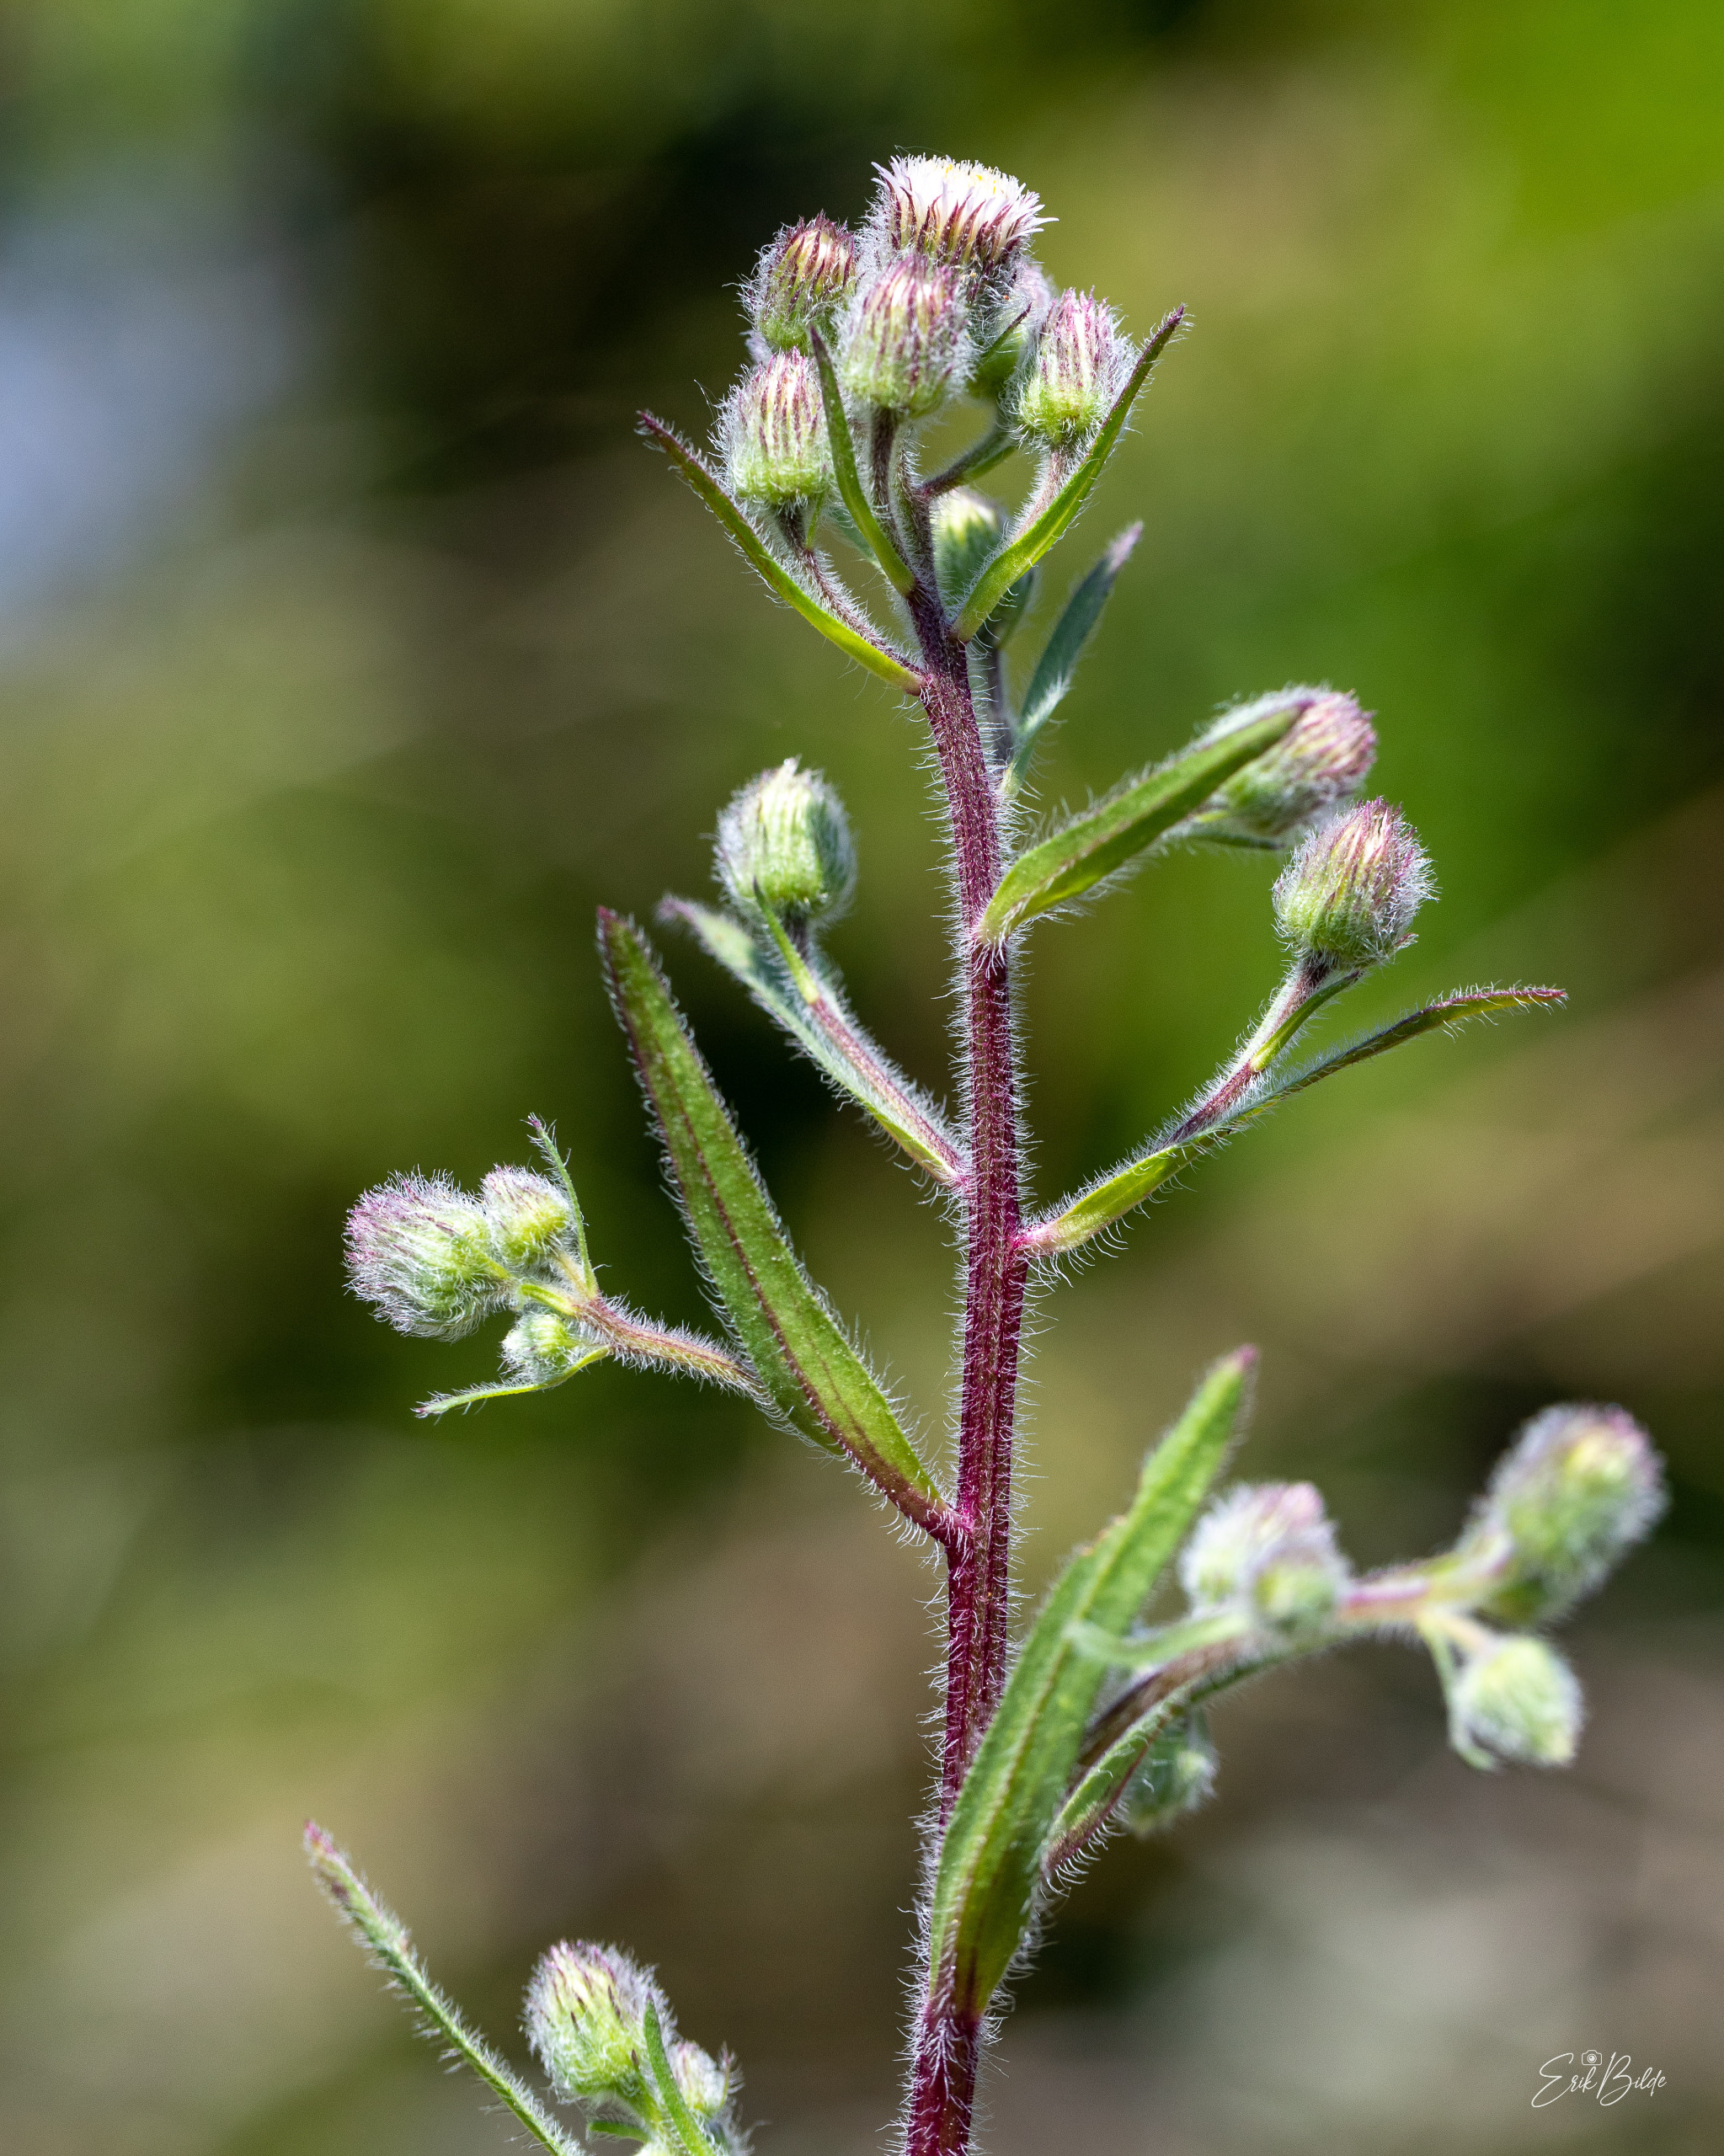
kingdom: Plantae
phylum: Tracheophyta
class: Magnoliopsida
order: Asterales
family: Asteraceae
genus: Erigeron
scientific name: Erigeron acris
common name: Bitter bakkestjerne
